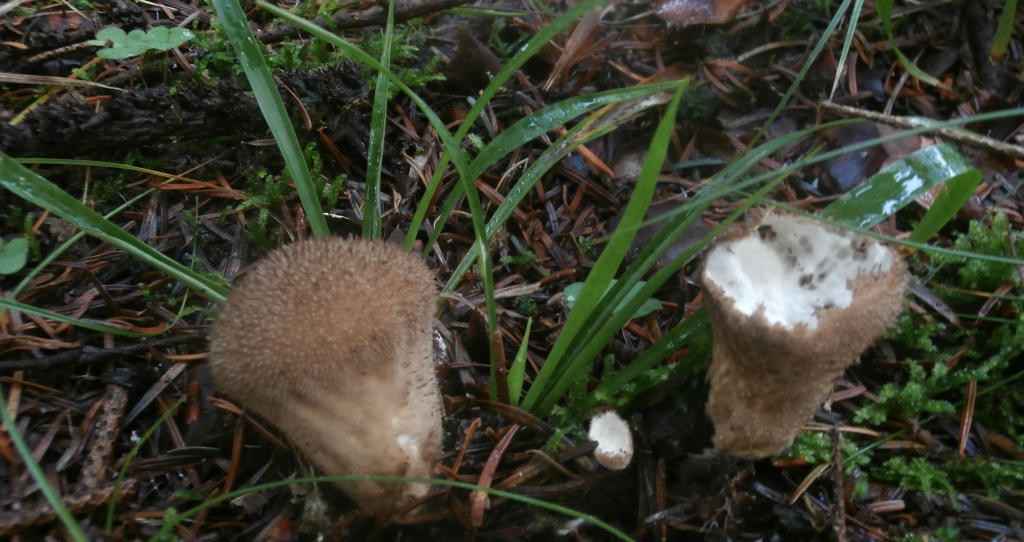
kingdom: Fungi
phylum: Basidiomycota
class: Agaricomycetes
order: Agaricales
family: Lycoperdaceae
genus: Lycoperdon
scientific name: Lycoperdon nigrescens
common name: sortagtig støvbold
